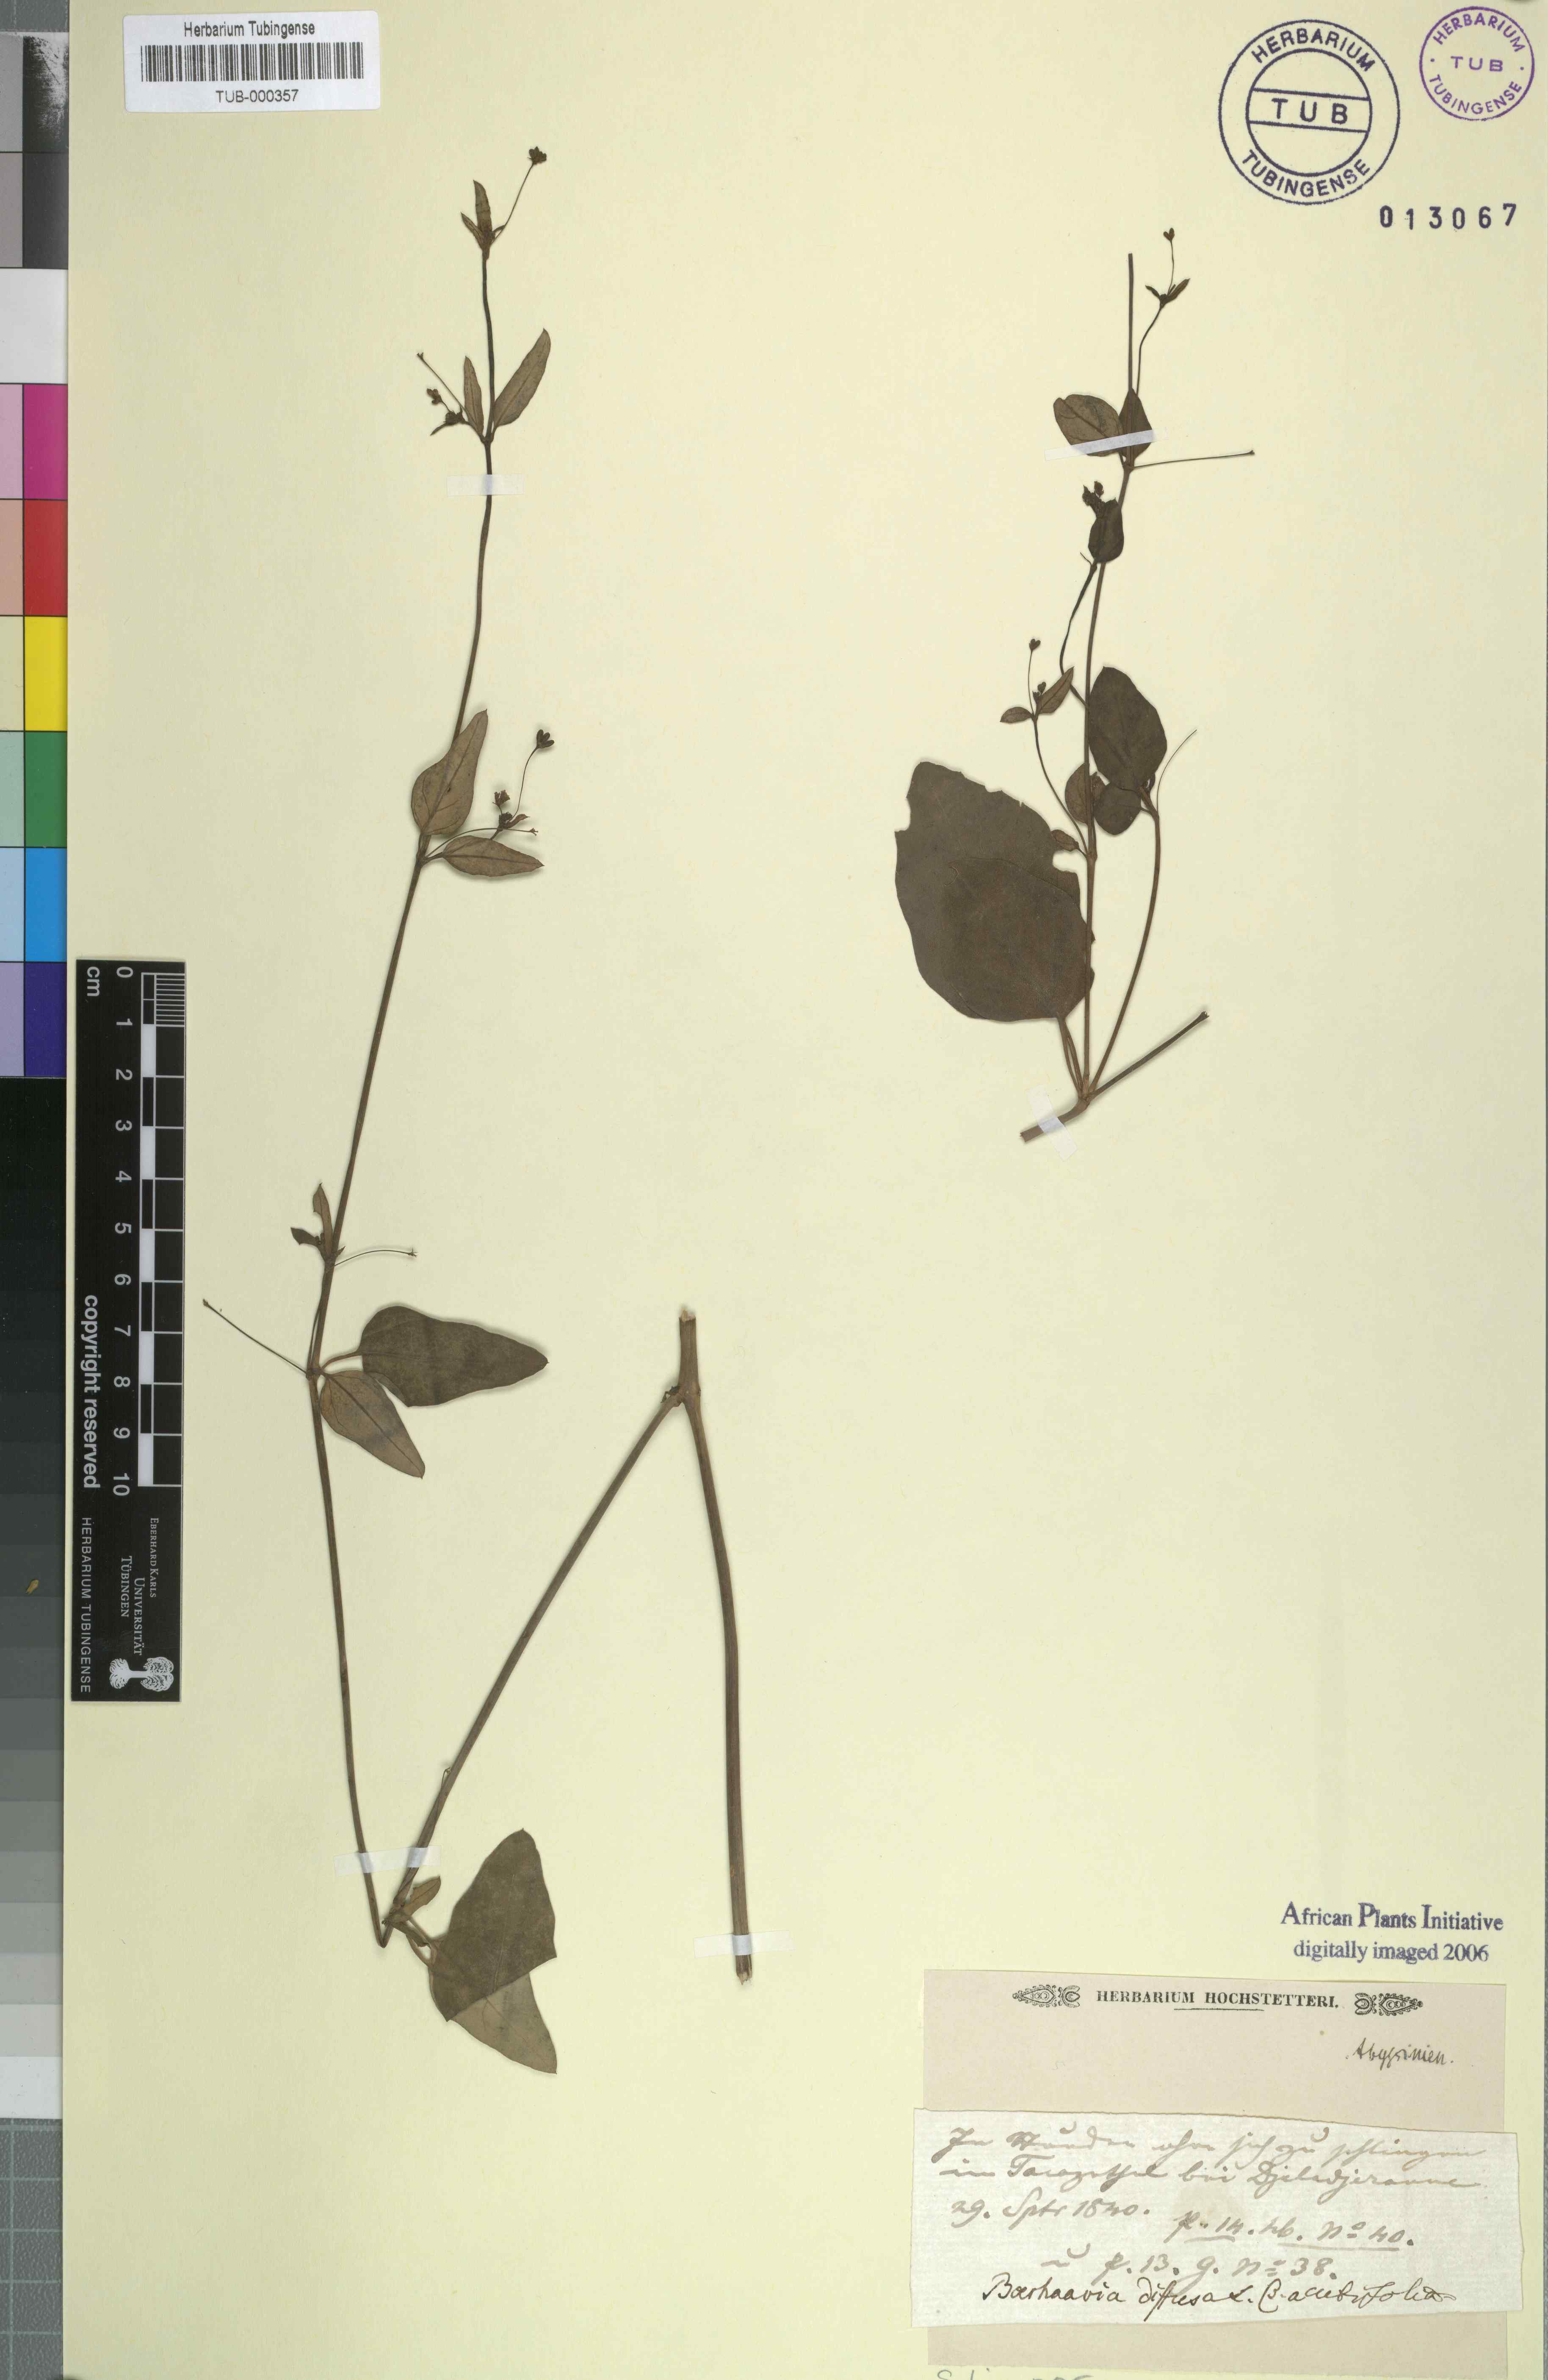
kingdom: Plantae
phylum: Tracheophyta
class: Magnoliopsida
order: Caryophyllales
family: Nyctaginaceae
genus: Boerhavia
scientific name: Boerhavia repens
